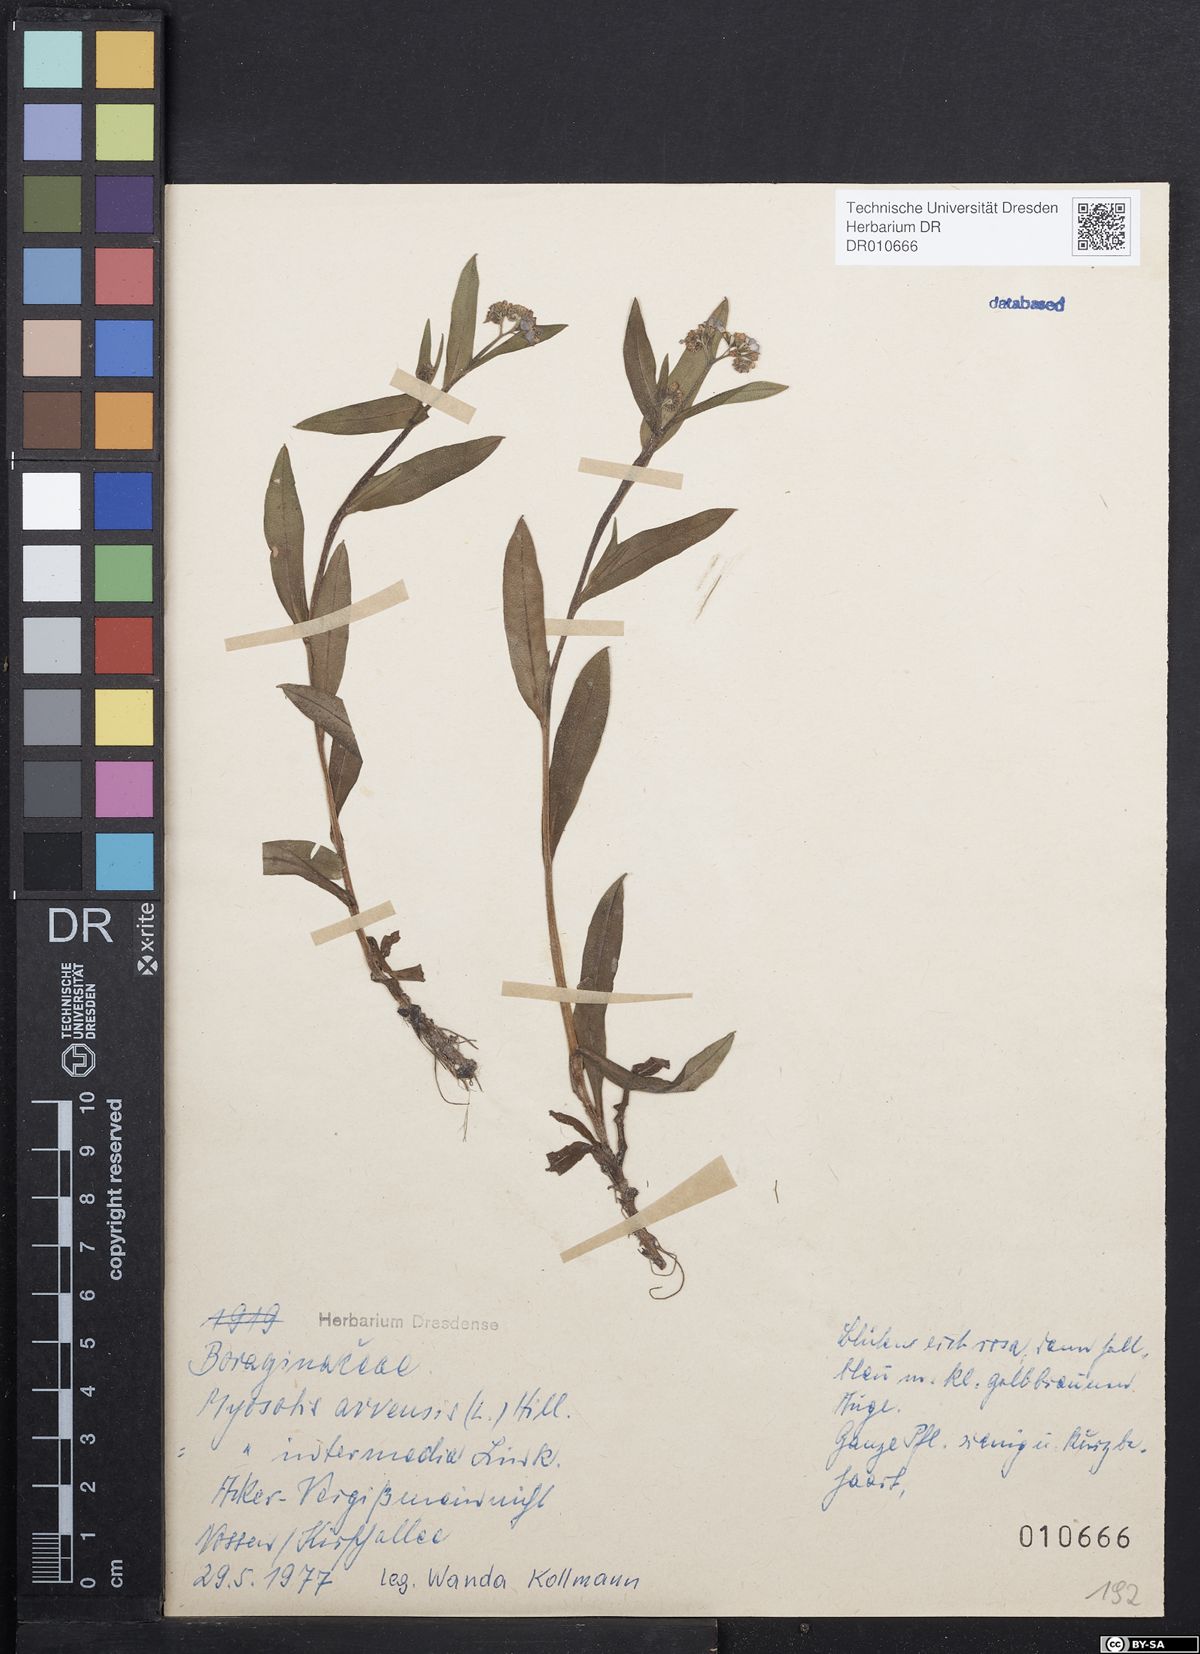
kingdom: Plantae
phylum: Tracheophyta
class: Magnoliopsida
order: Boraginales
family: Boraginaceae
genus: Myosotis
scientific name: Myosotis arvensis
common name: Field forget-me-not
